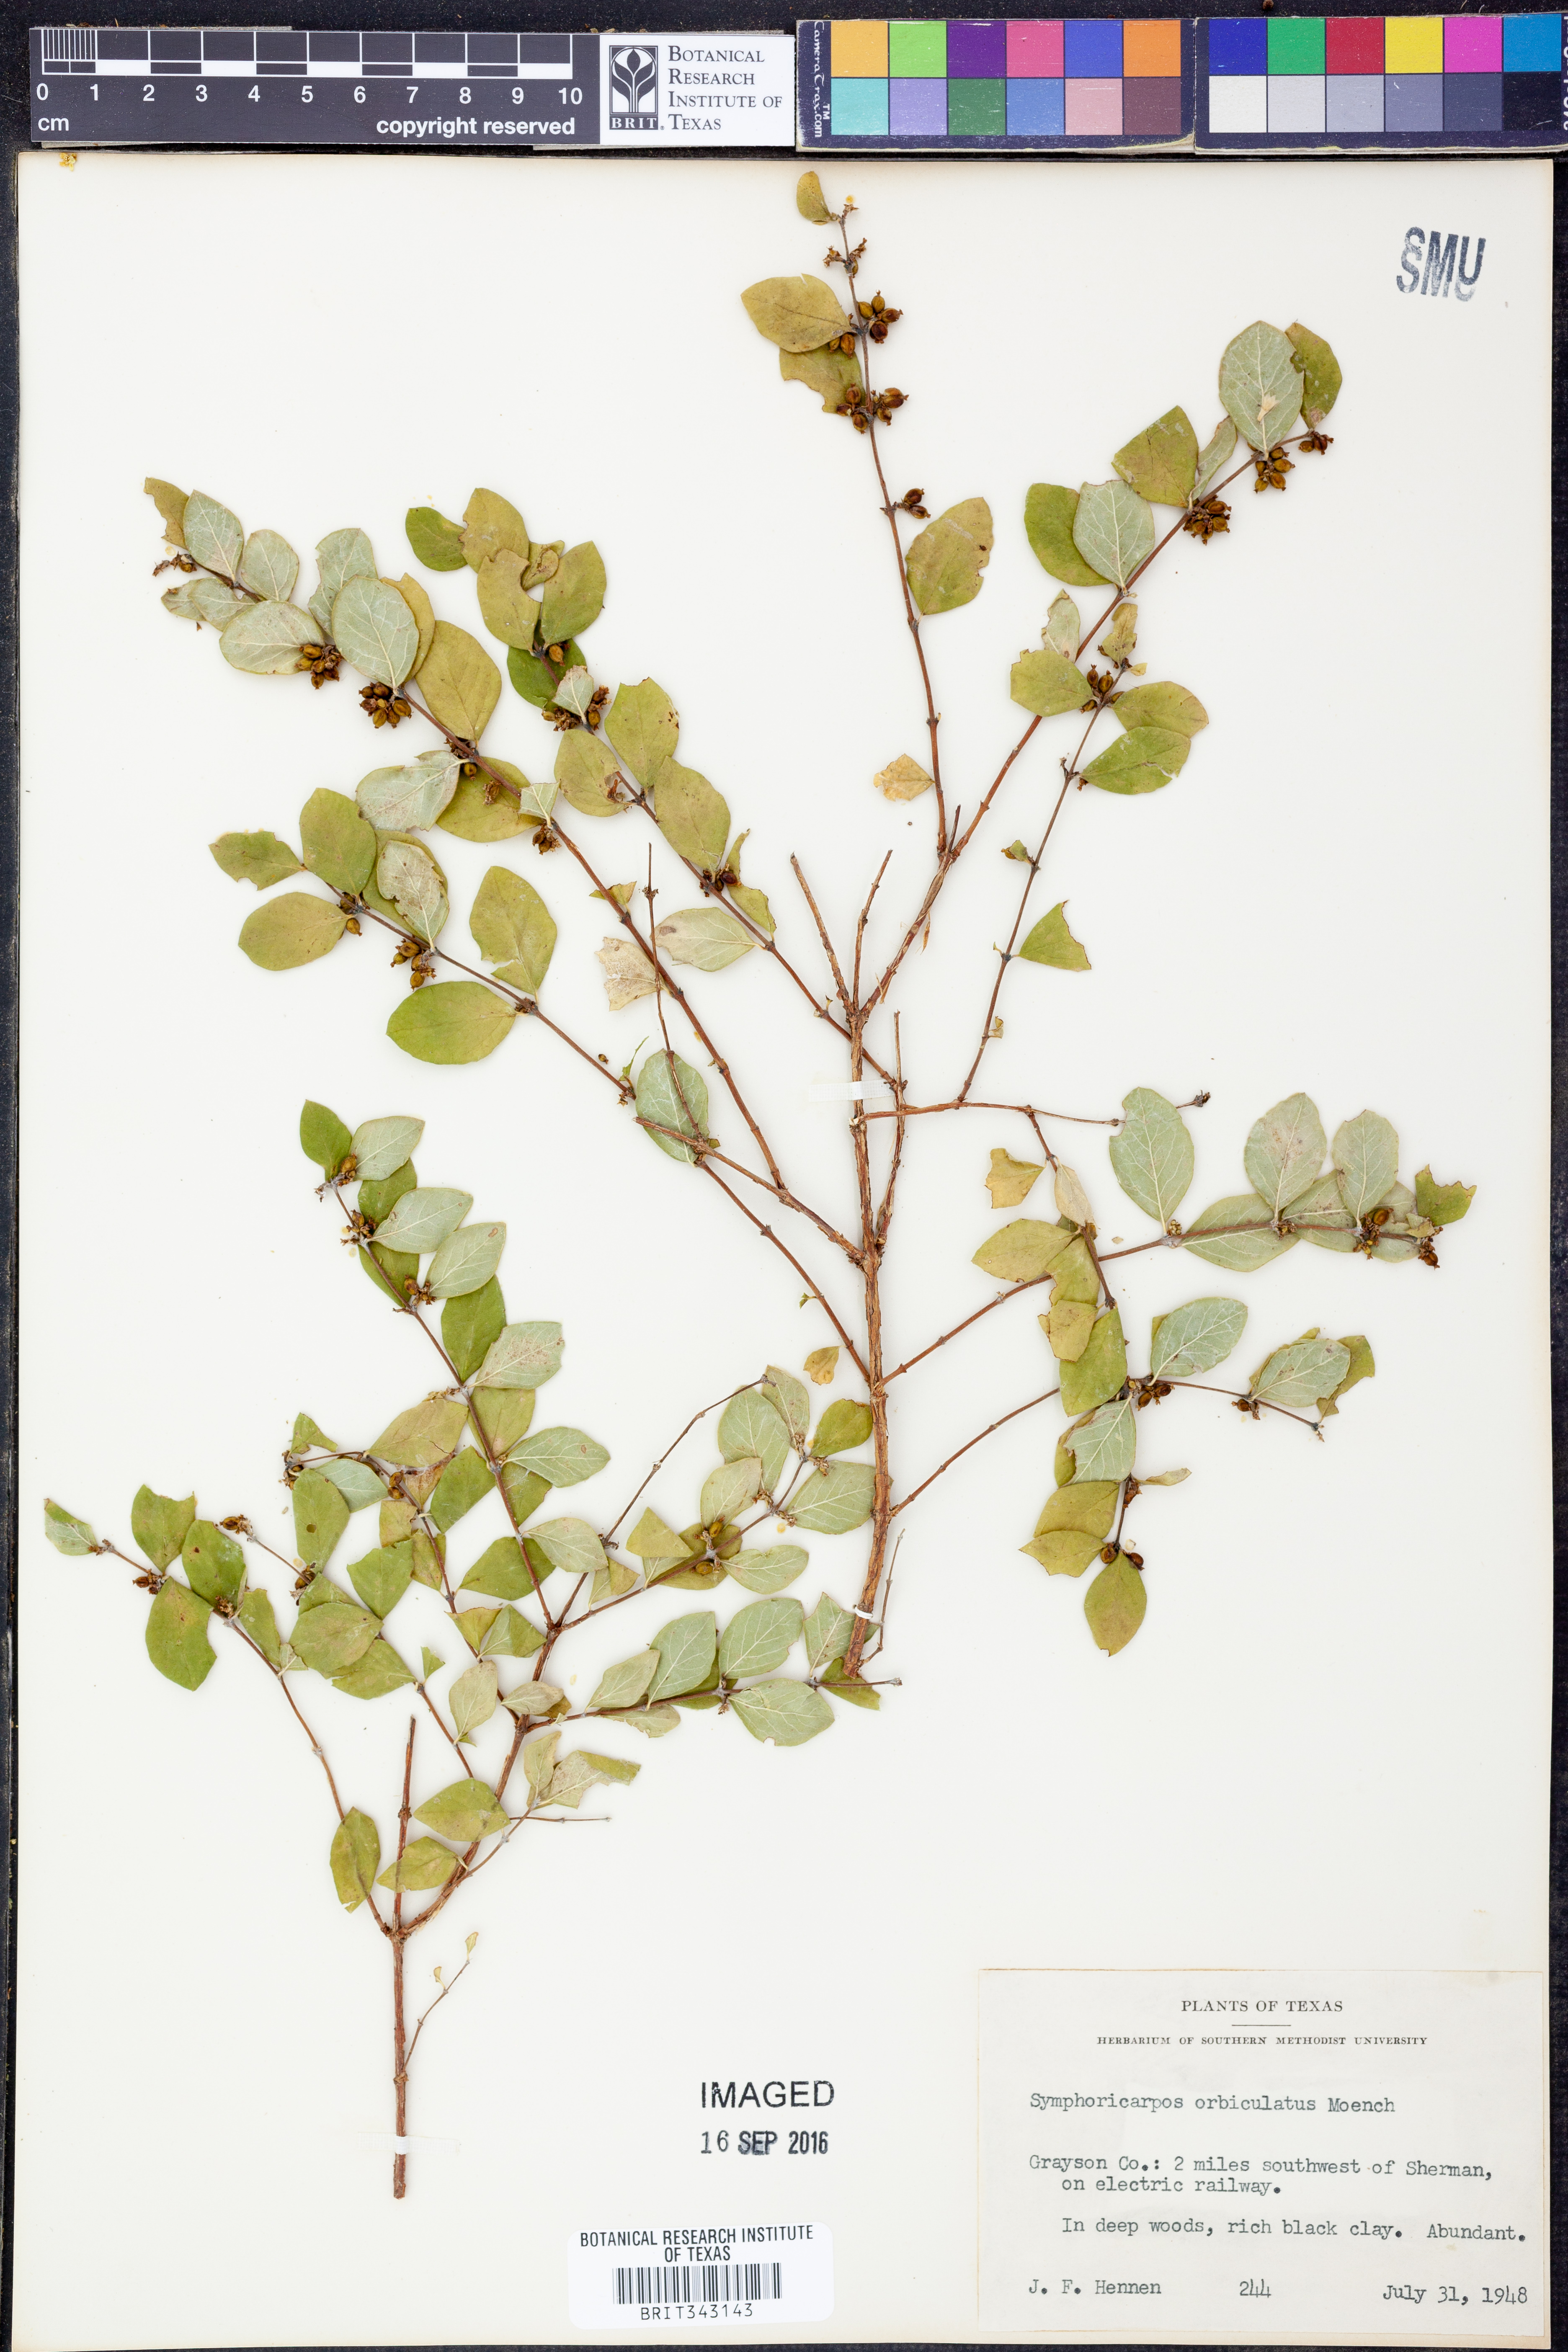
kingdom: Plantae
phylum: Tracheophyta
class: Magnoliopsida
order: Dipsacales
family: Caprifoliaceae
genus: Symphoricarpos
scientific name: Symphoricarpos orbiculatus
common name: Coralberry
